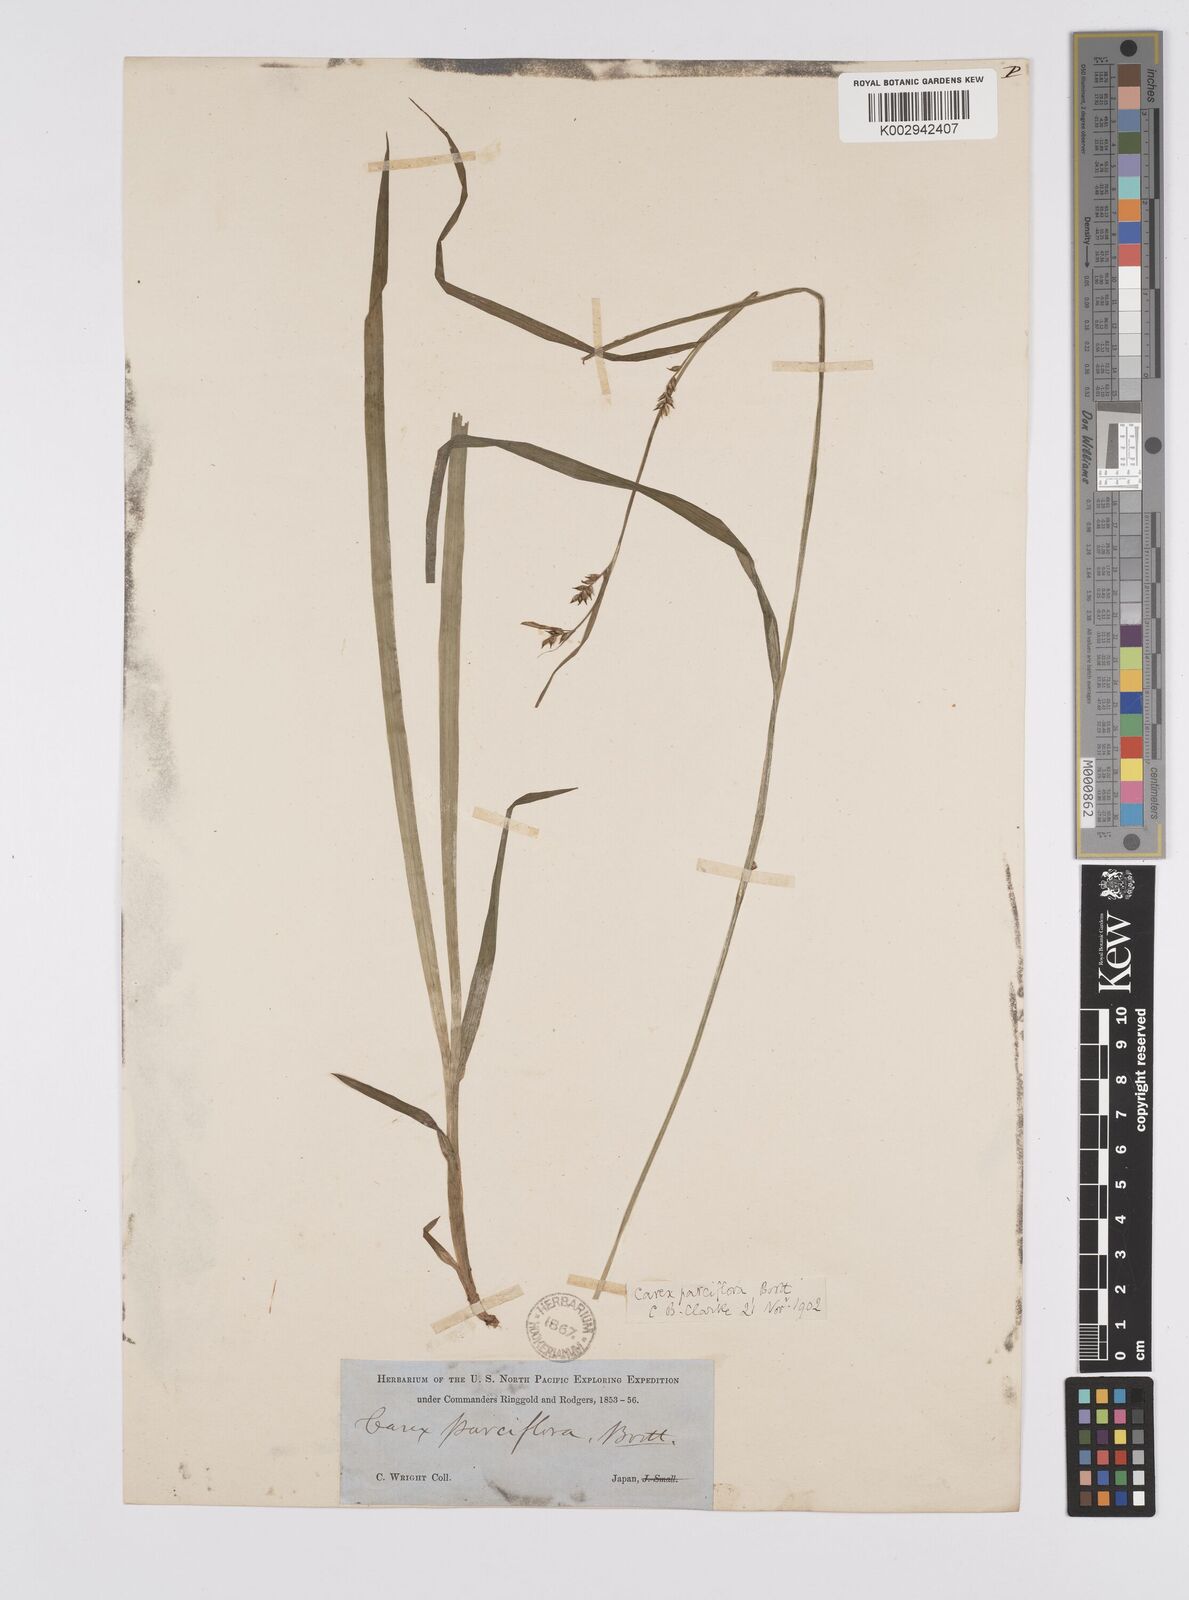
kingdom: Plantae
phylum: Tracheophyta
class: Liliopsida
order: Poales
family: Cyperaceae
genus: Carex
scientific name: Carex parciflora
